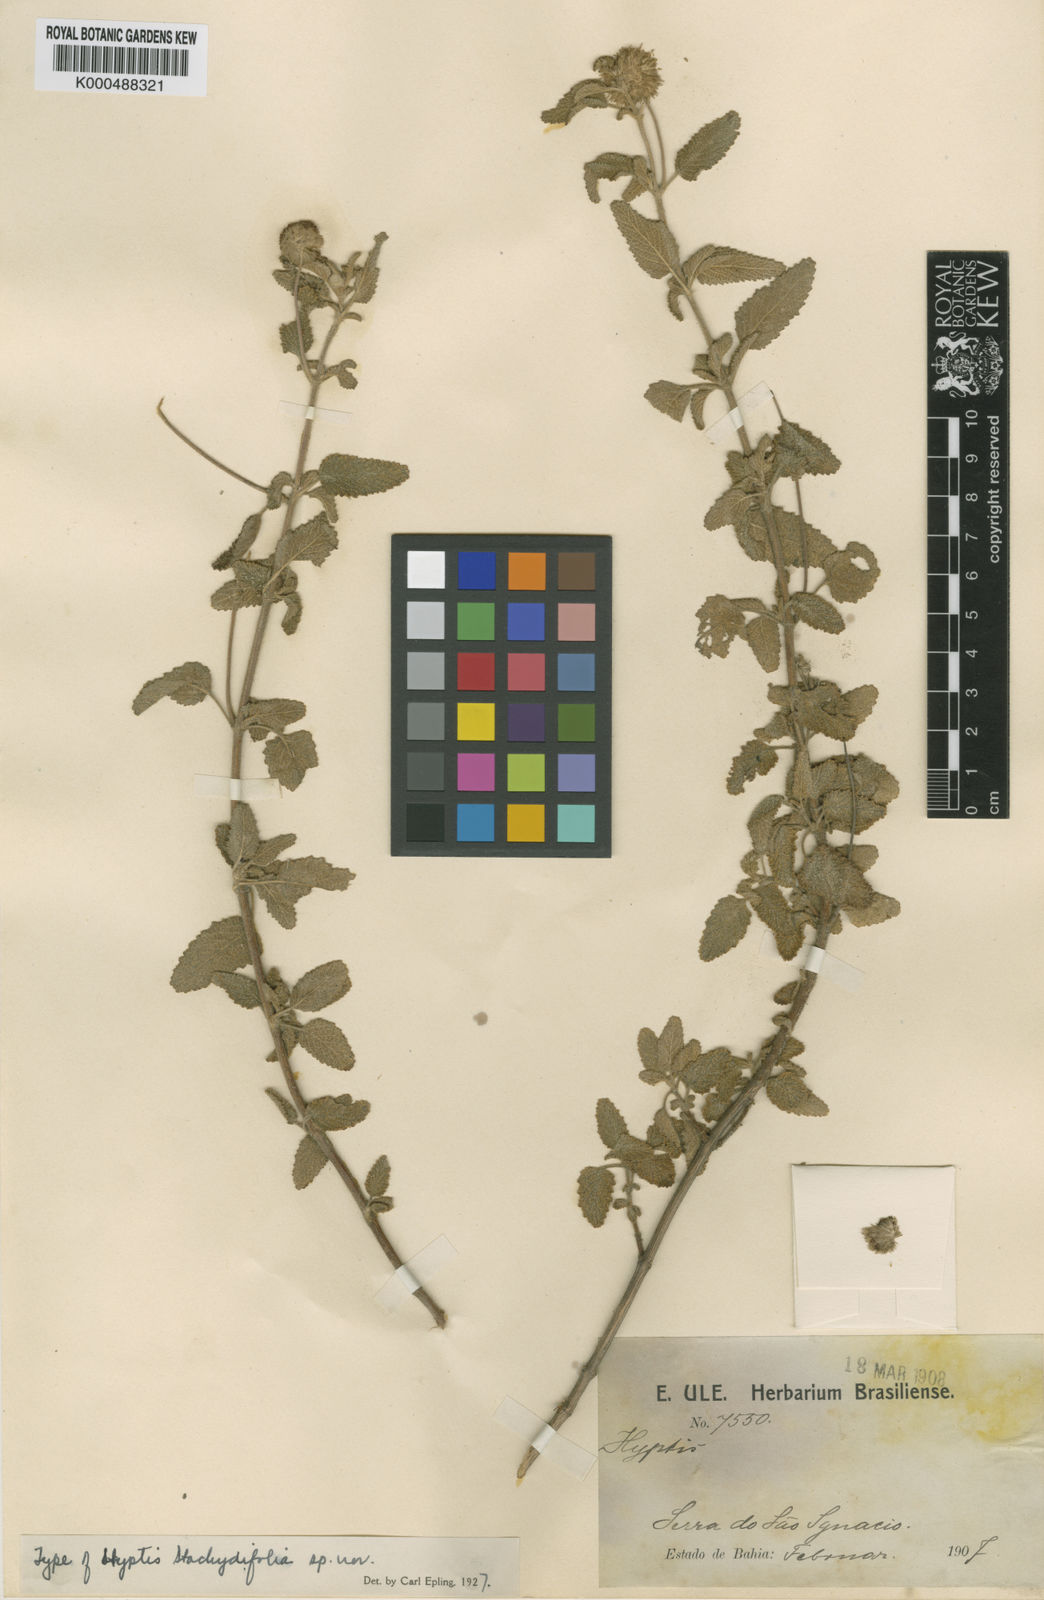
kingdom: Plantae
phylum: Tracheophyta
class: Magnoliopsida
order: Lamiales
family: Lamiaceae
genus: Martianthus
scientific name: Martianthus stachydifolius
